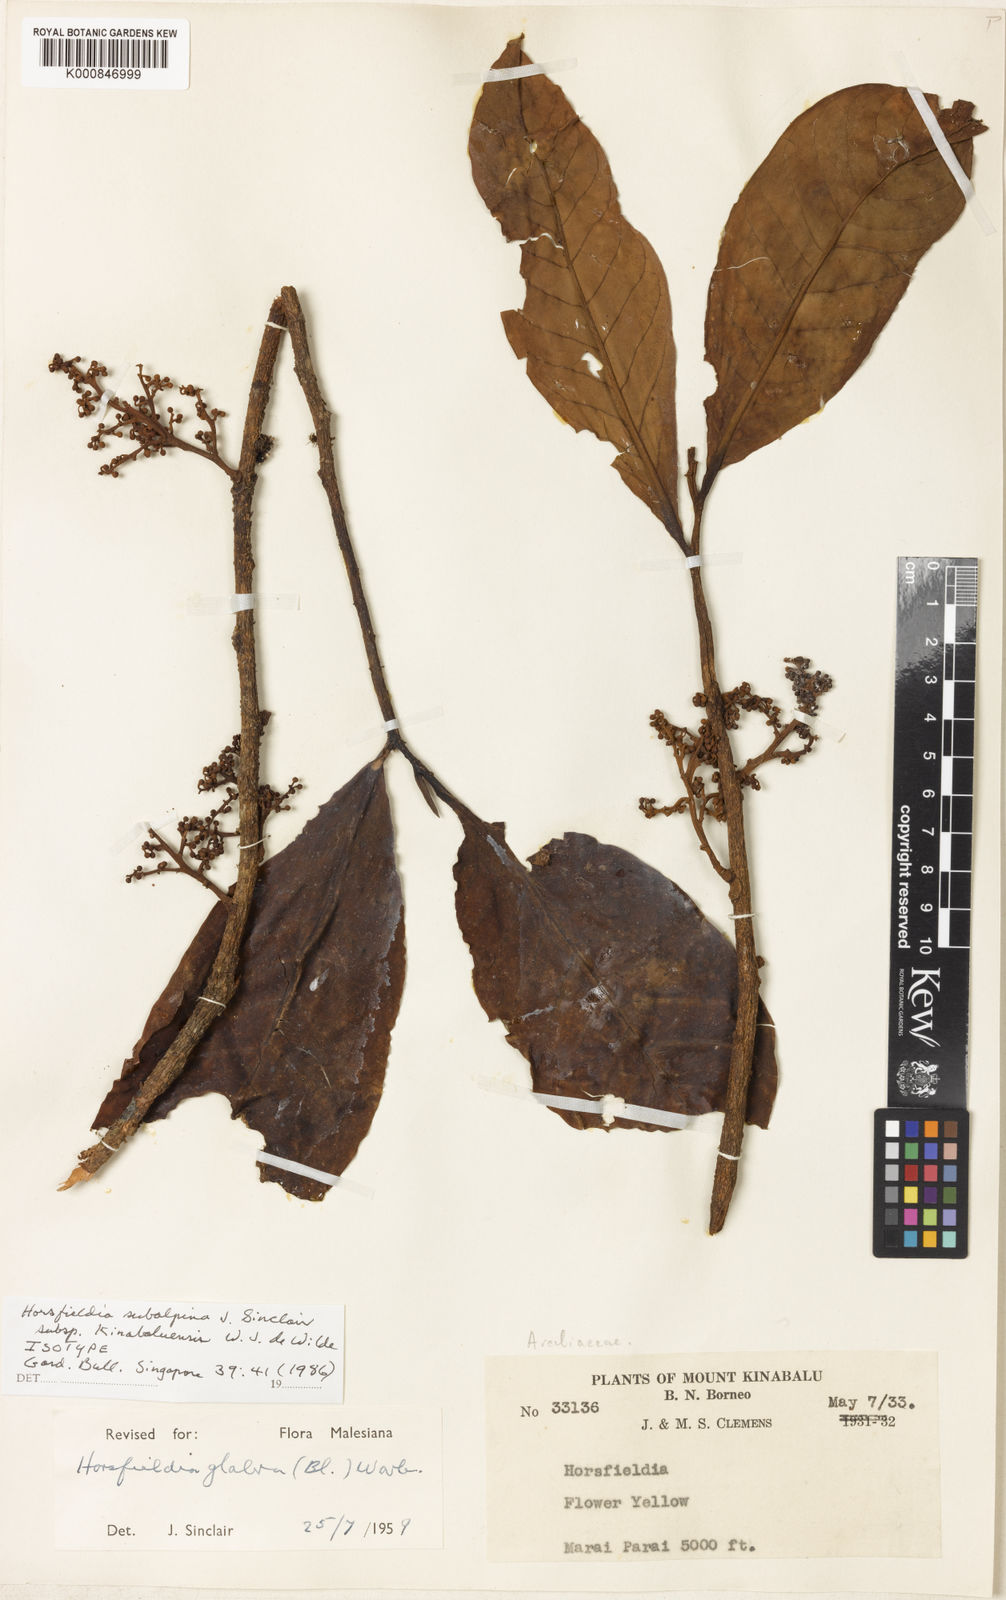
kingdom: Plantae
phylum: Tracheophyta
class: Magnoliopsida
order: Magnoliales
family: Myristicaceae
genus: Horsfieldia
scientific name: Horsfieldia subalpina
